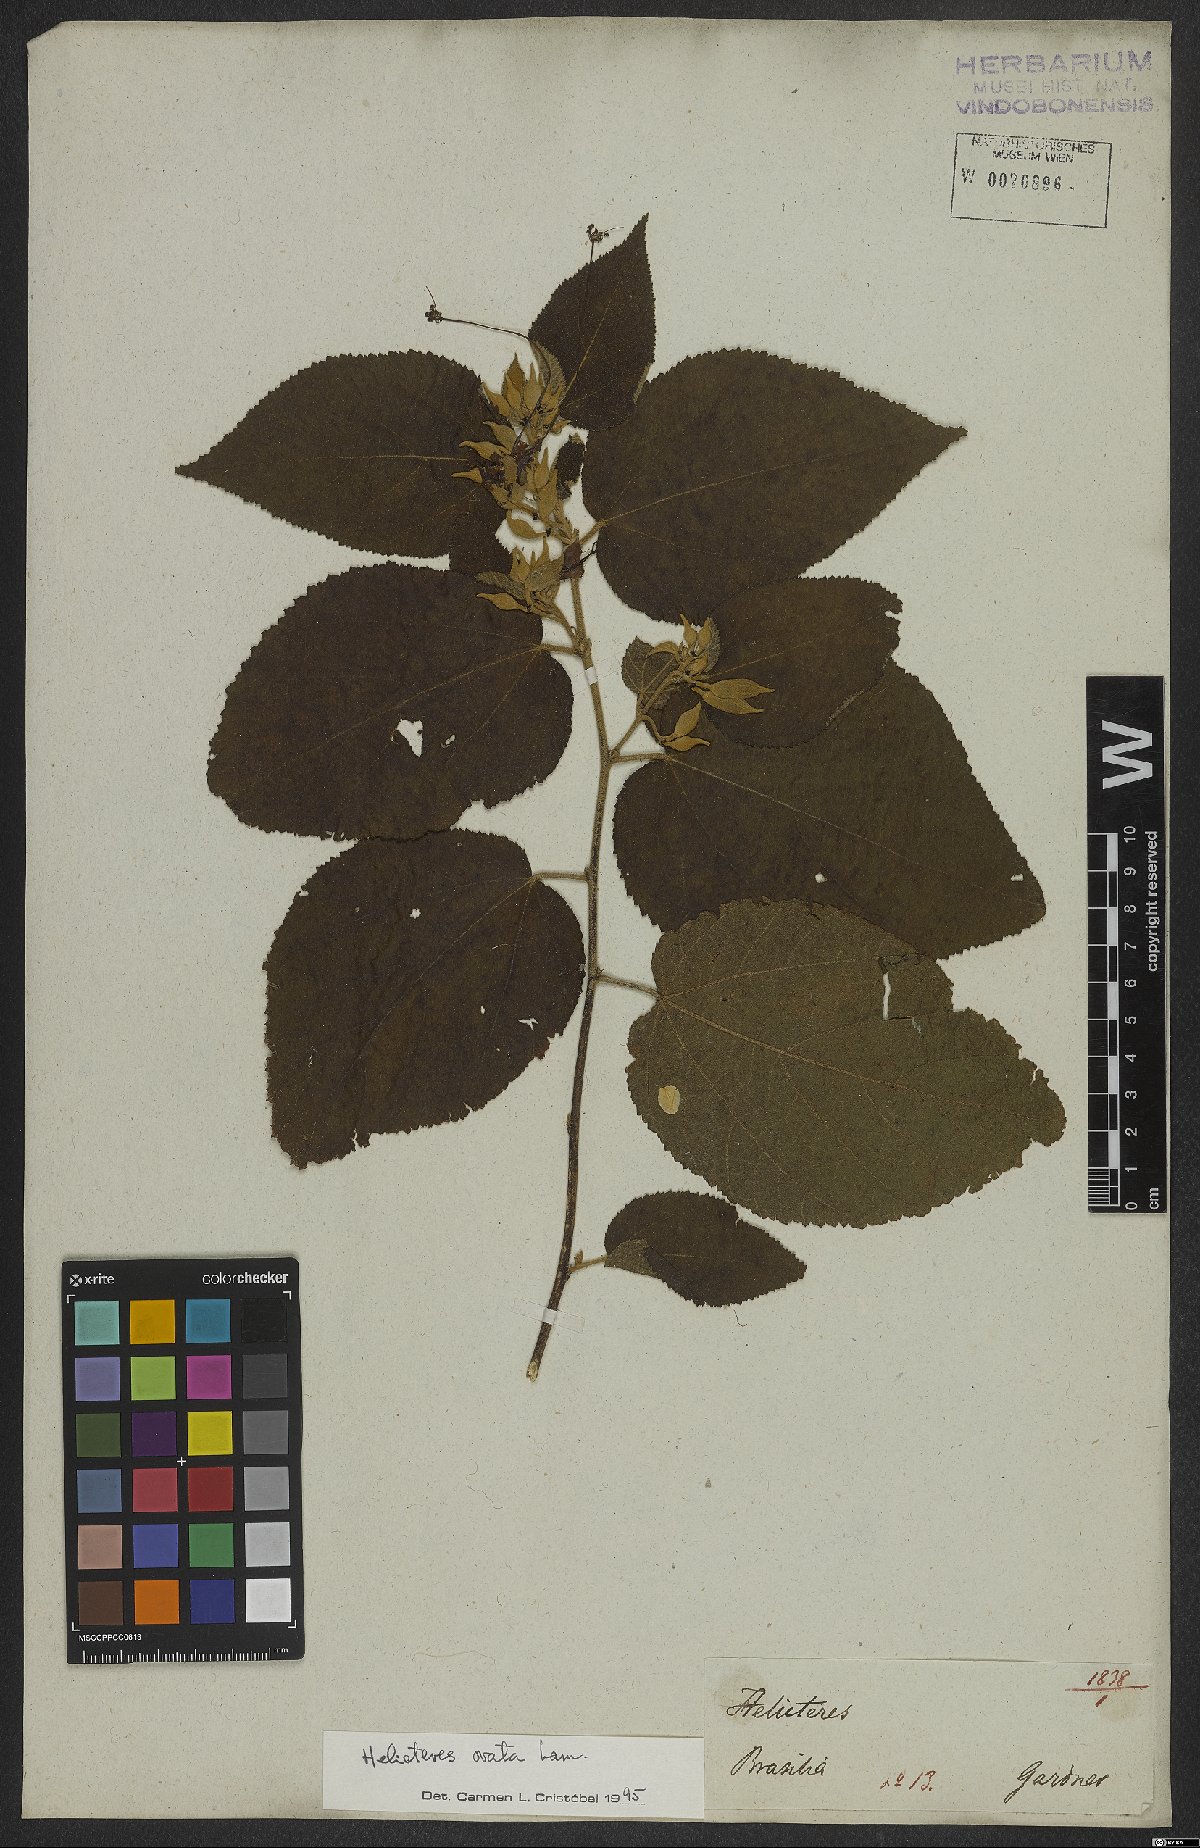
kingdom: Plantae
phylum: Tracheophyta
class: Magnoliopsida
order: Malvales
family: Malvaceae
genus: Helicteres
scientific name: Helicteres ovata
